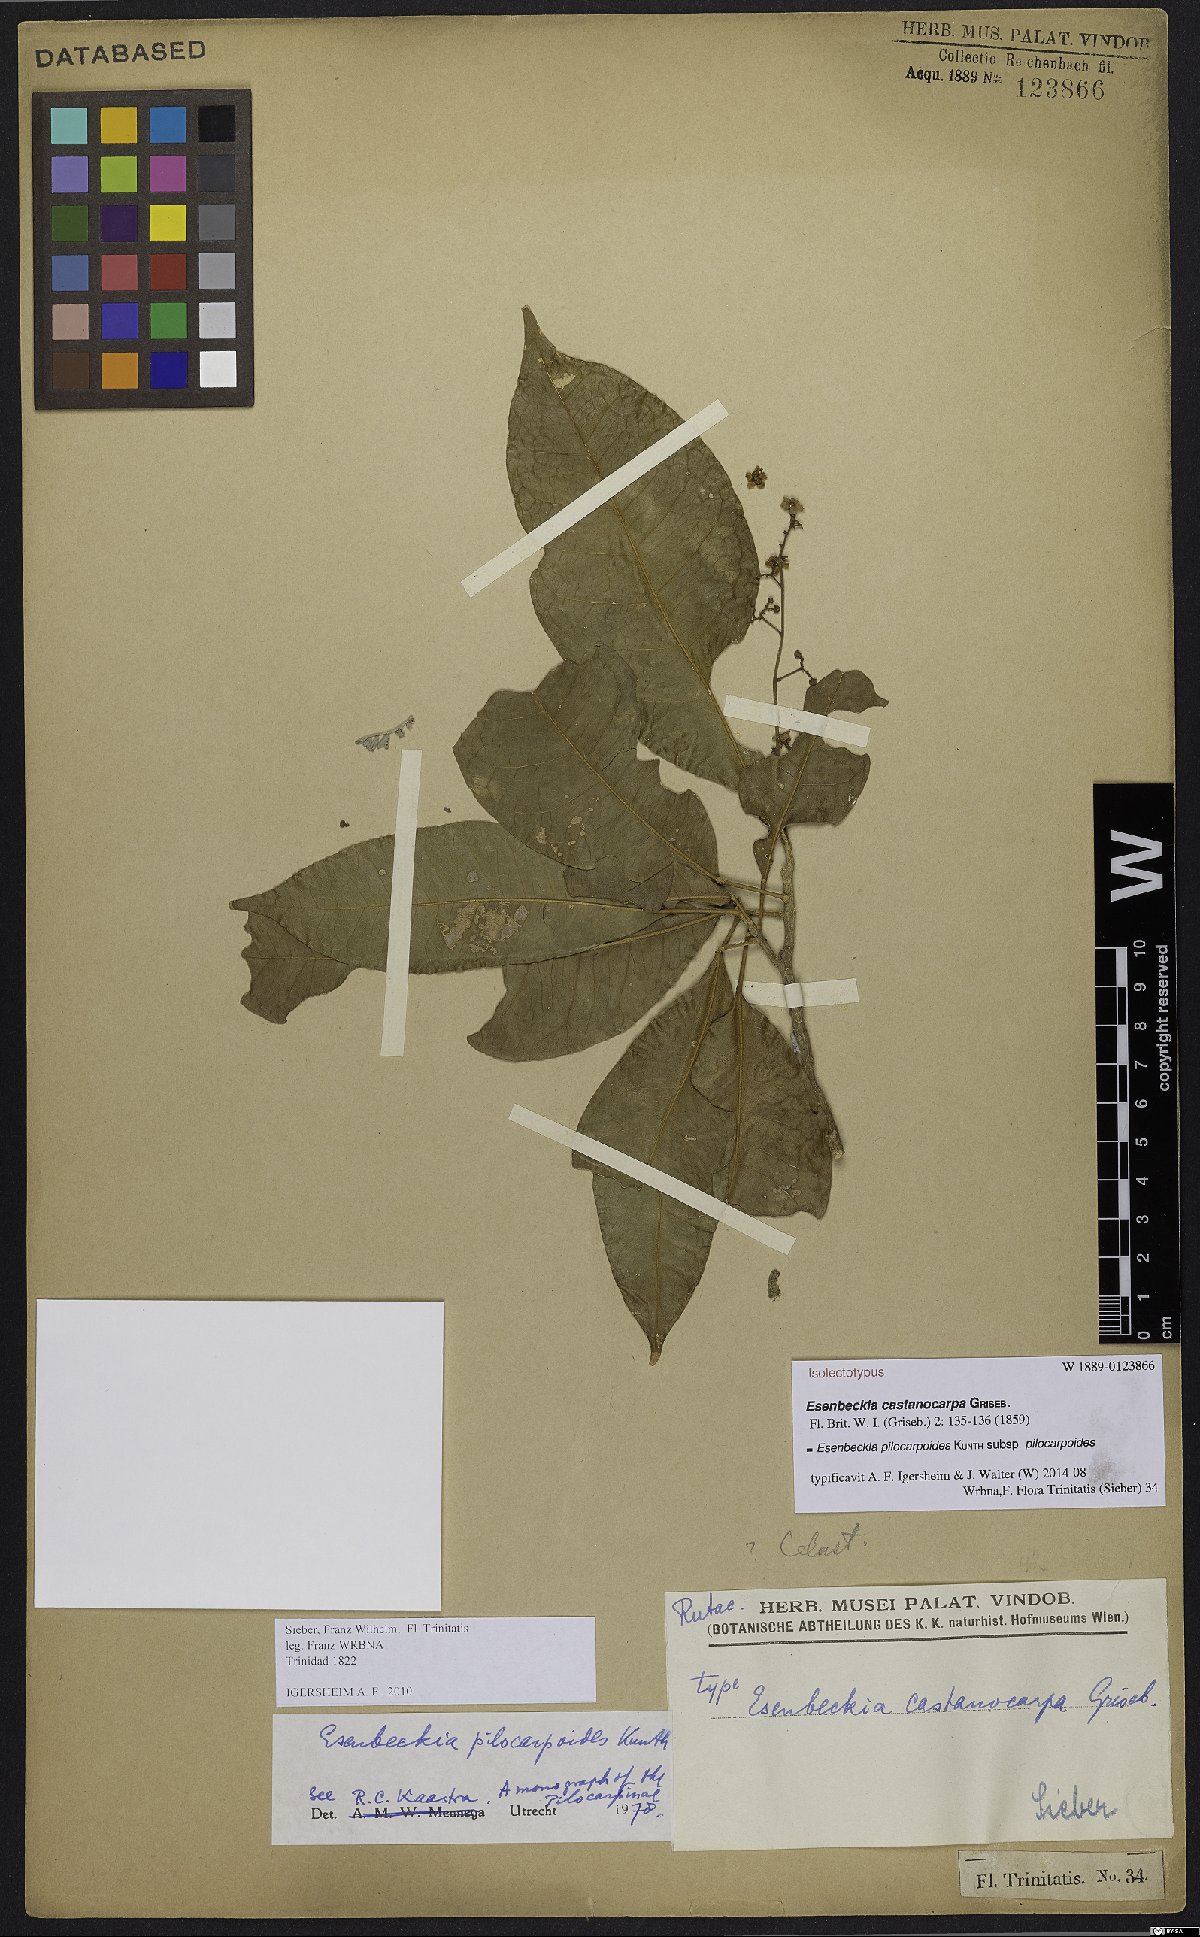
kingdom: Plantae
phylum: Tracheophyta
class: Magnoliopsida
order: Sapindales
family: Rutaceae
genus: Esenbeckia
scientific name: Esenbeckia pilocarpoides
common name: Pilosefruit esenbeckia
